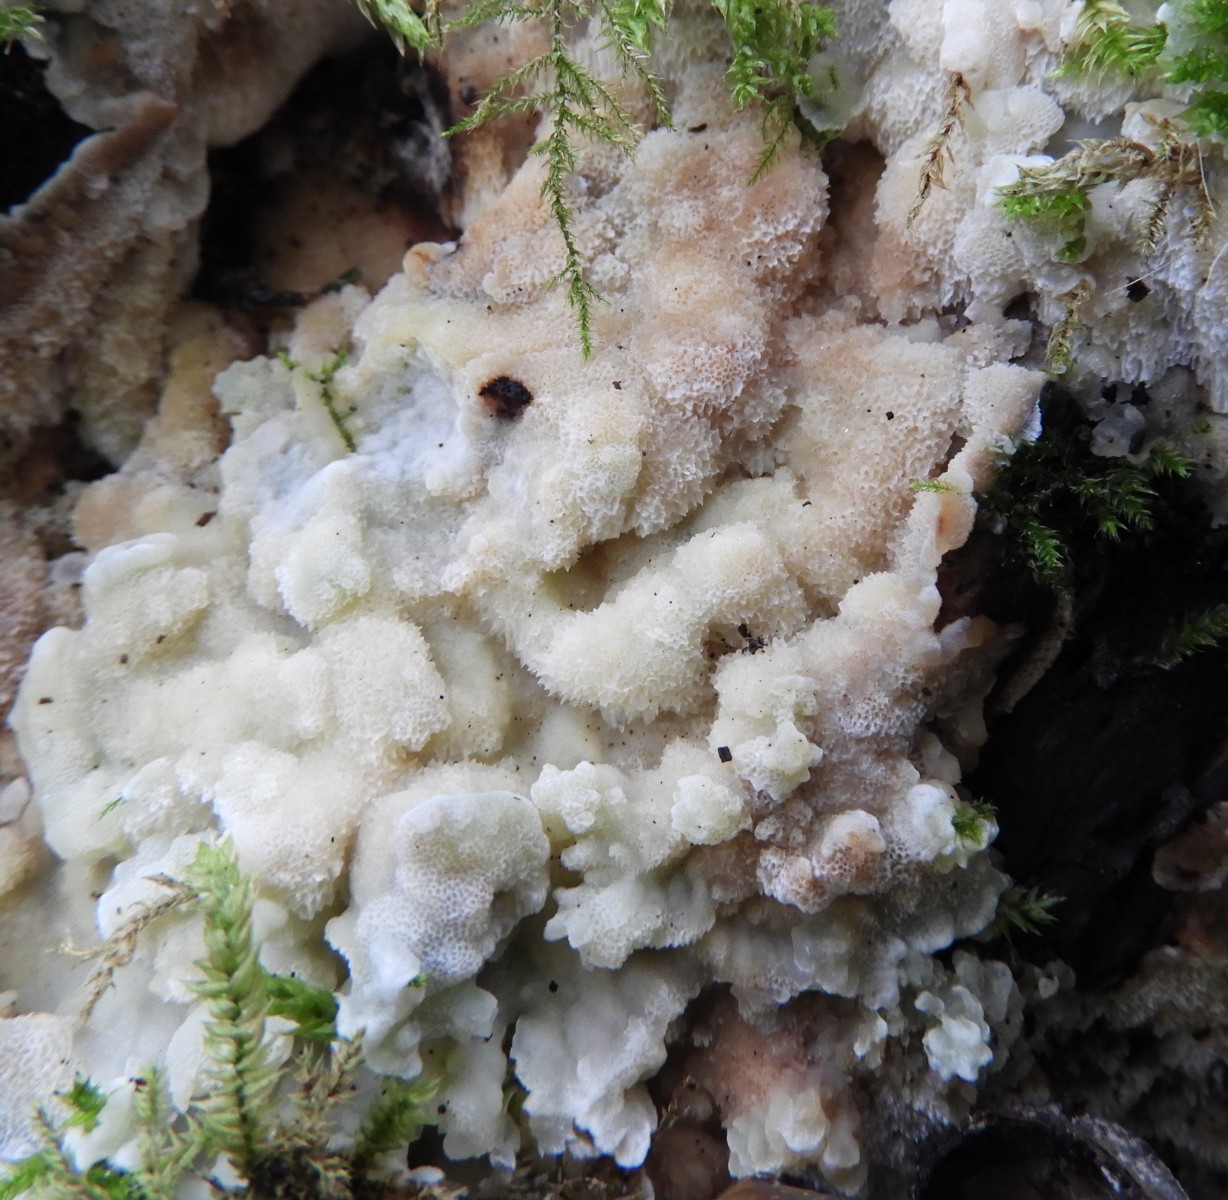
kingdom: Fungi
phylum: Basidiomycota
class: Agaricomycetes
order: Polyporales
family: Meruliaceae
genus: Physisporinus
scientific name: Physisporinus vitreus
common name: mastesvamp
